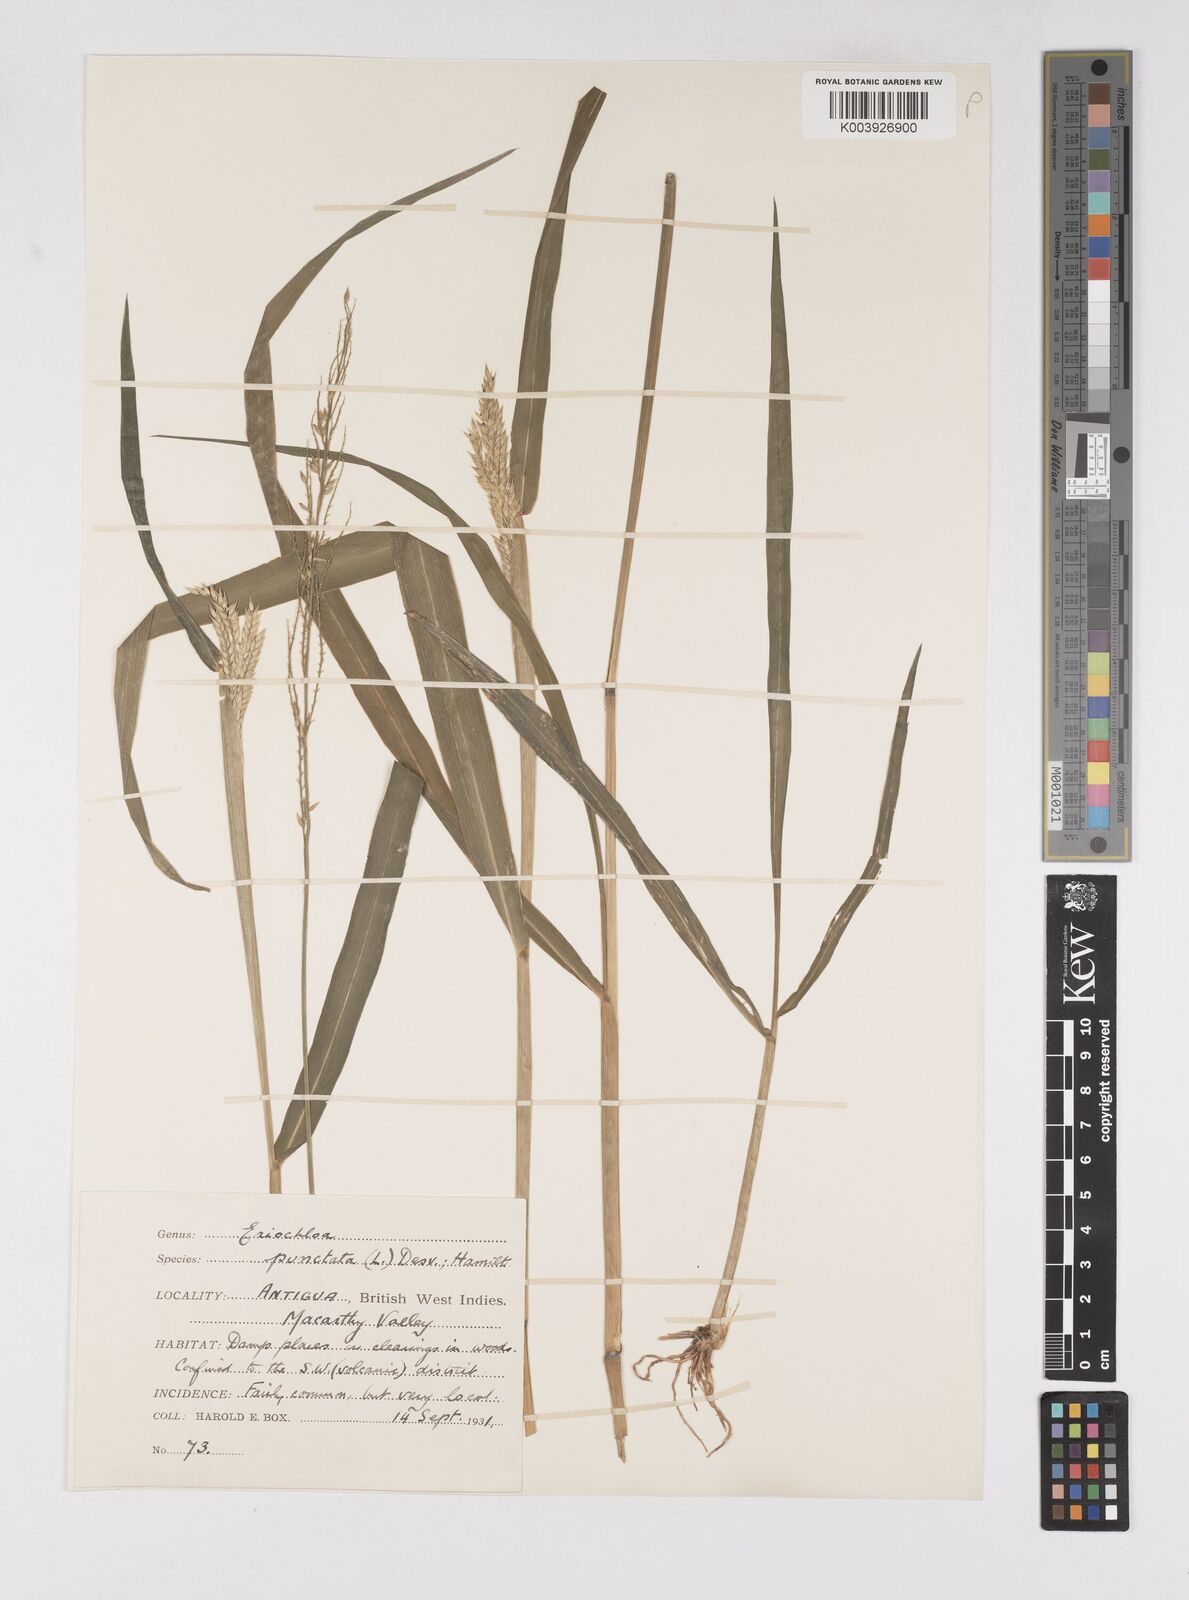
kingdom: Plantae
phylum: Tracheophyta
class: Liliopsida
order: Poales
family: Poaceae
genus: Eriochloa
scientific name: Eriochloa punctata
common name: Louisiana cupgrass
